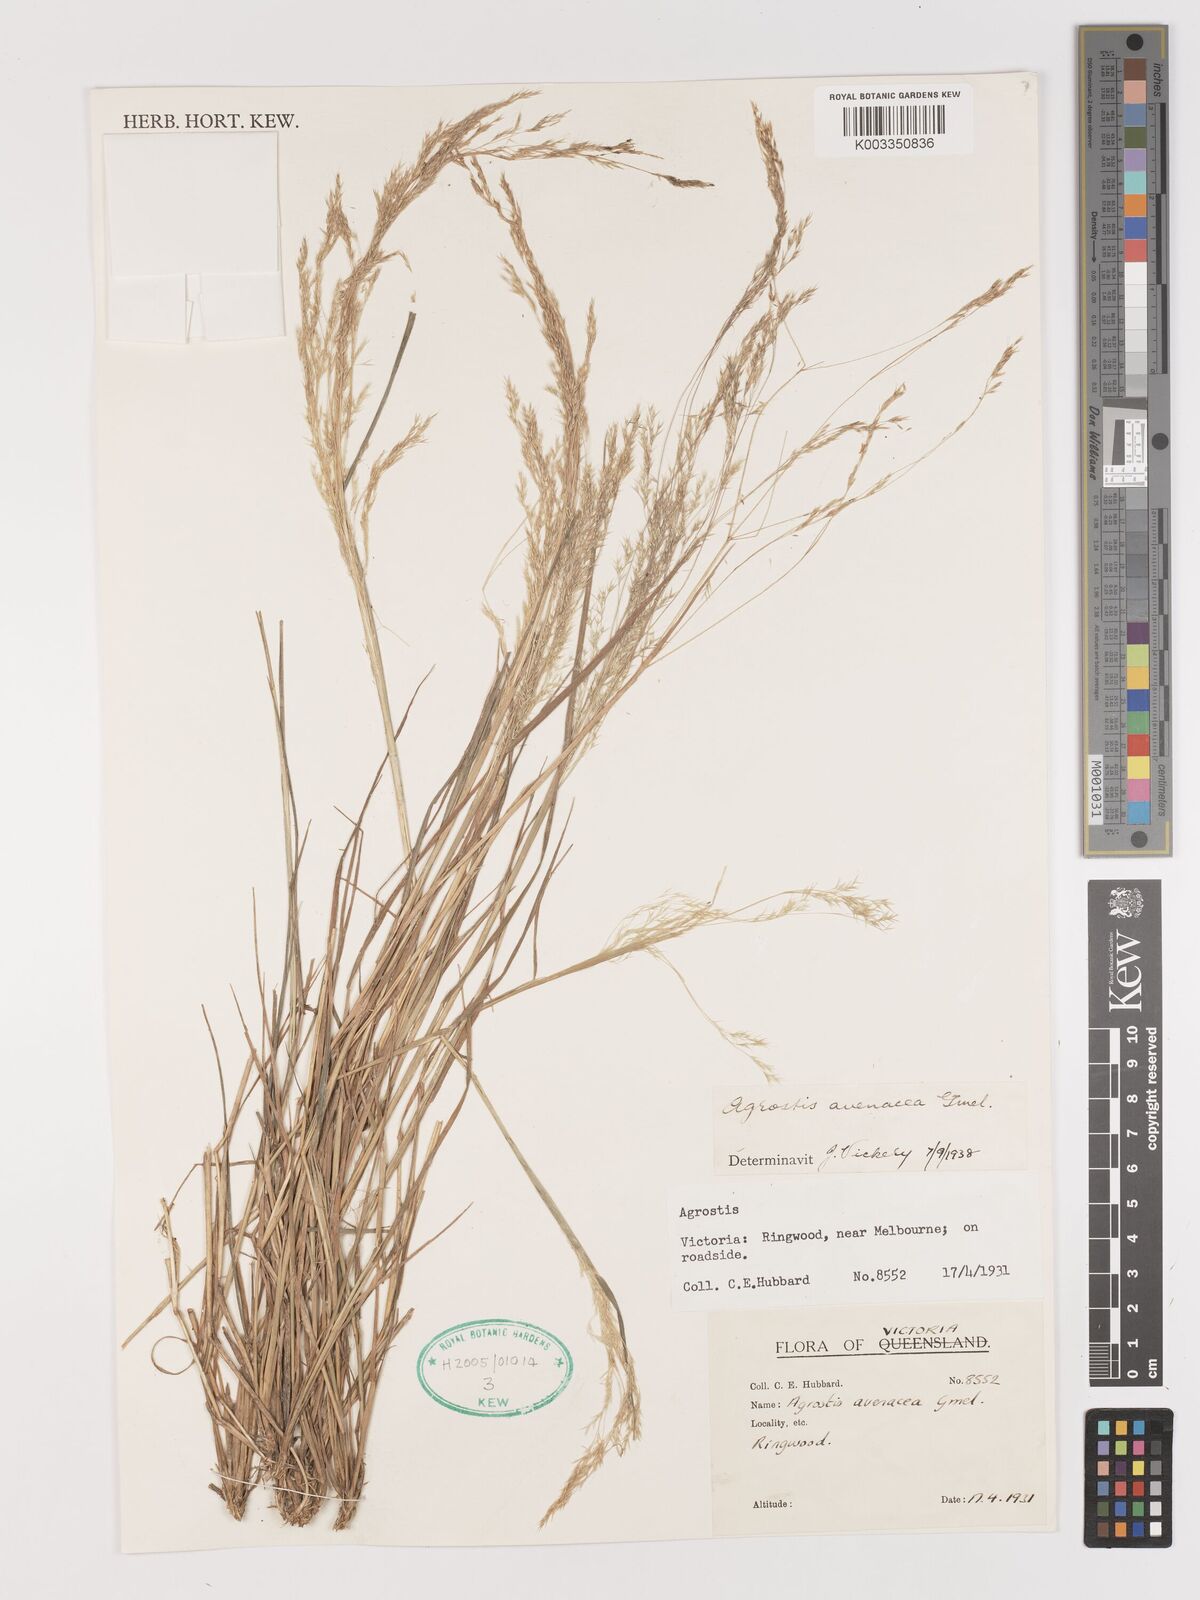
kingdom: Plantae
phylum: Tracheophyta
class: Liliopsida
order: Poales
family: Poaceae
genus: Lachnagrostis
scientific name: Lachnagrostis filiformis
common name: Bentgrass
